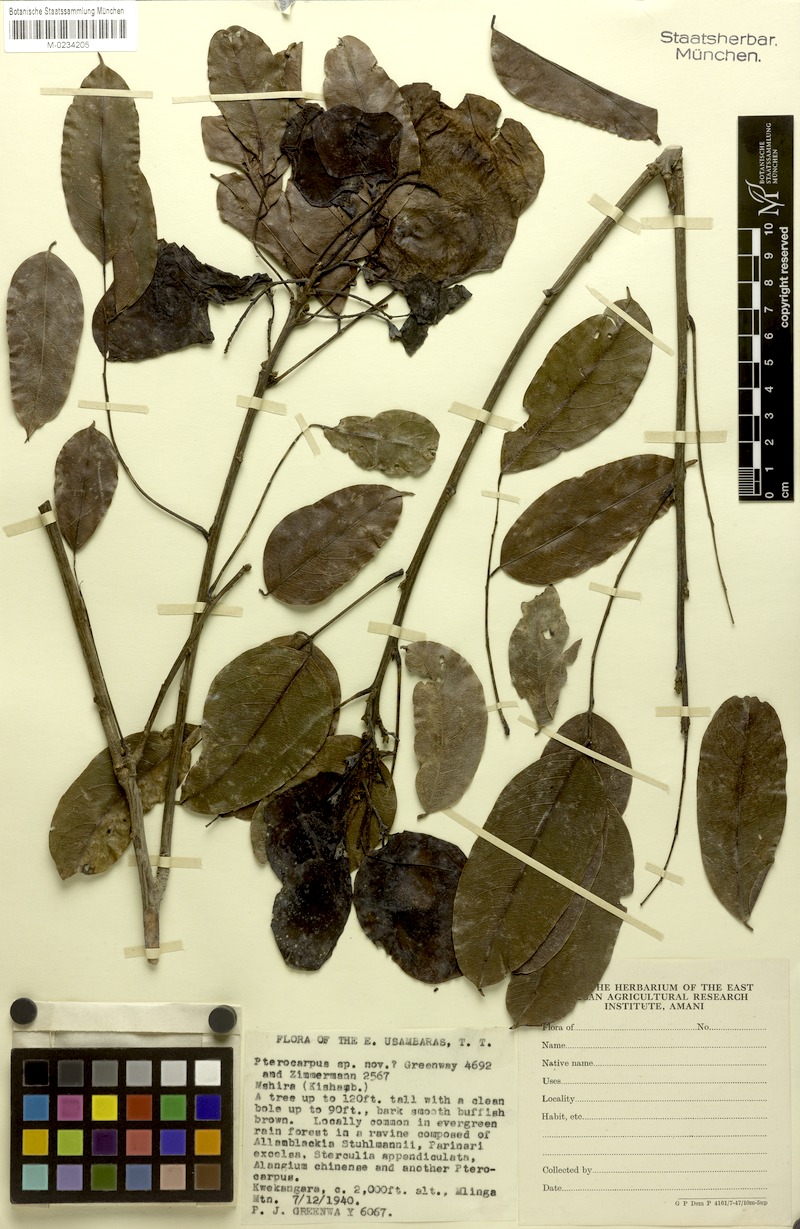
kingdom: Plantae
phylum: Tracheophyta
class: Magnoliopsida
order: Fabales
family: Fabaceae
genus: Pterocarpus
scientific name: Pterocarpus mildbraedii
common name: White padouk
